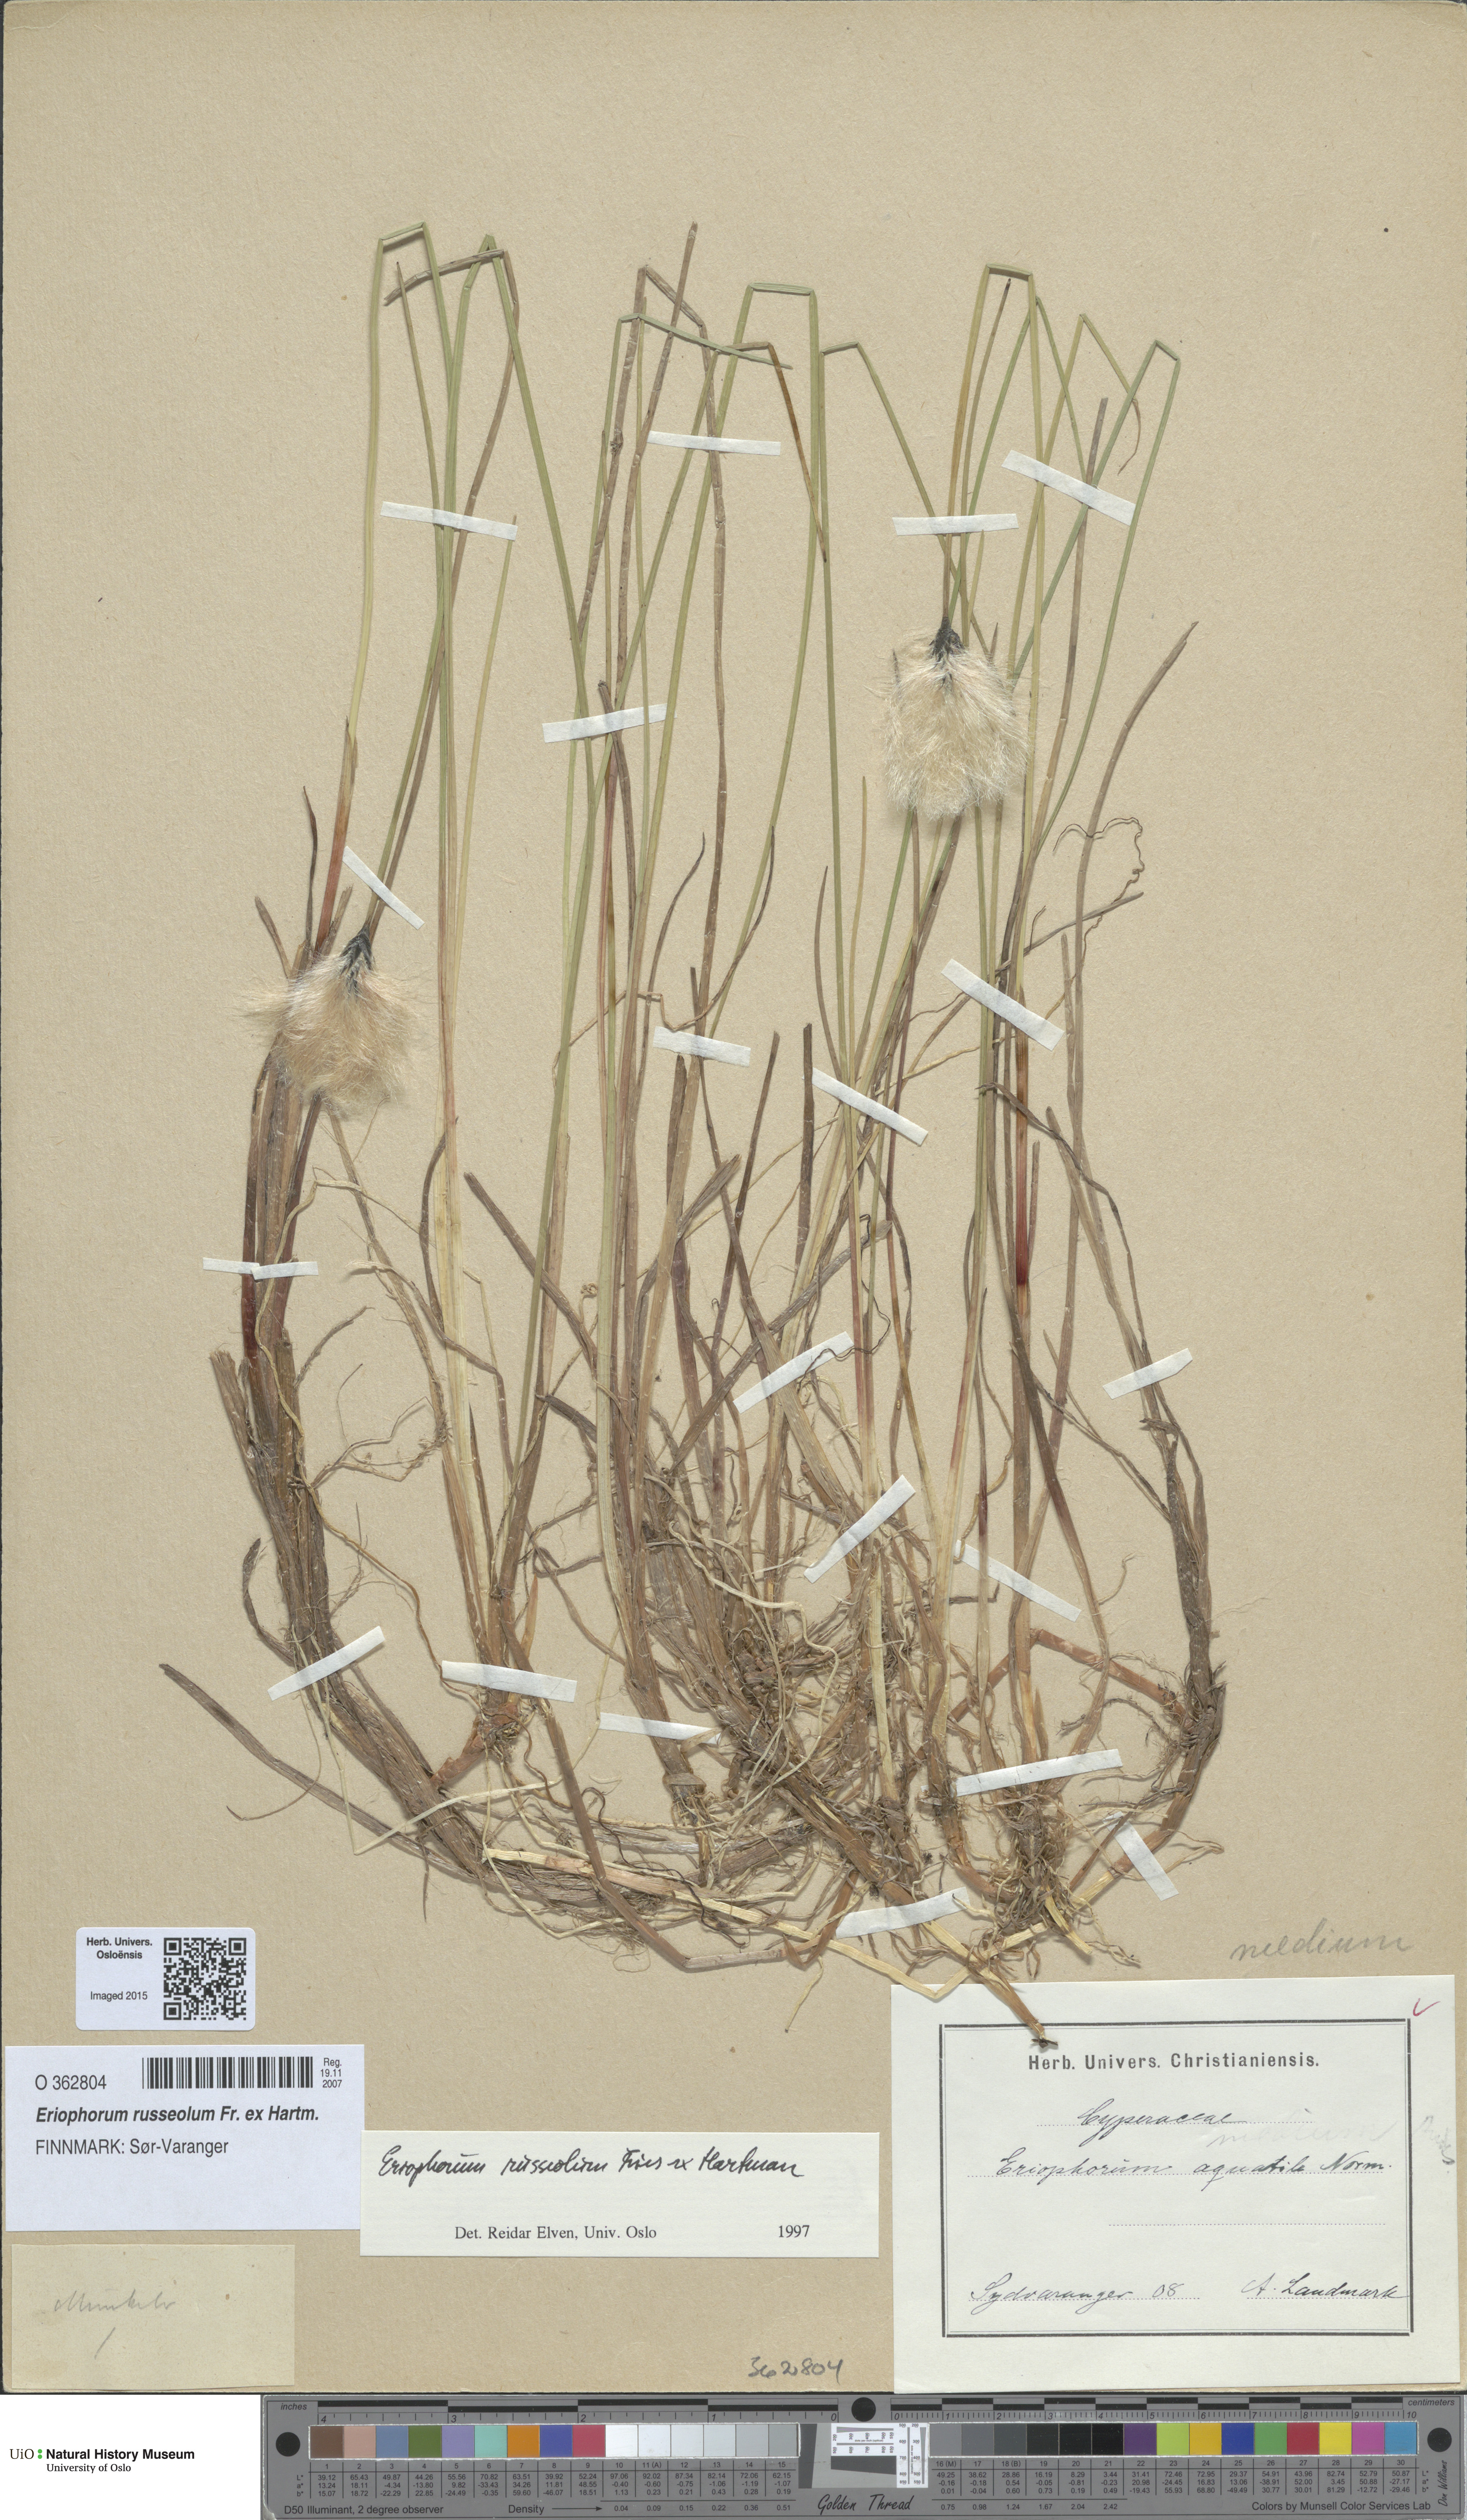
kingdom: Plantae
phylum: Tracheophyta
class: Liliopsida
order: Poales
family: Cyperaceae
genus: Eriophorum
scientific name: Eriophorum russeolum
